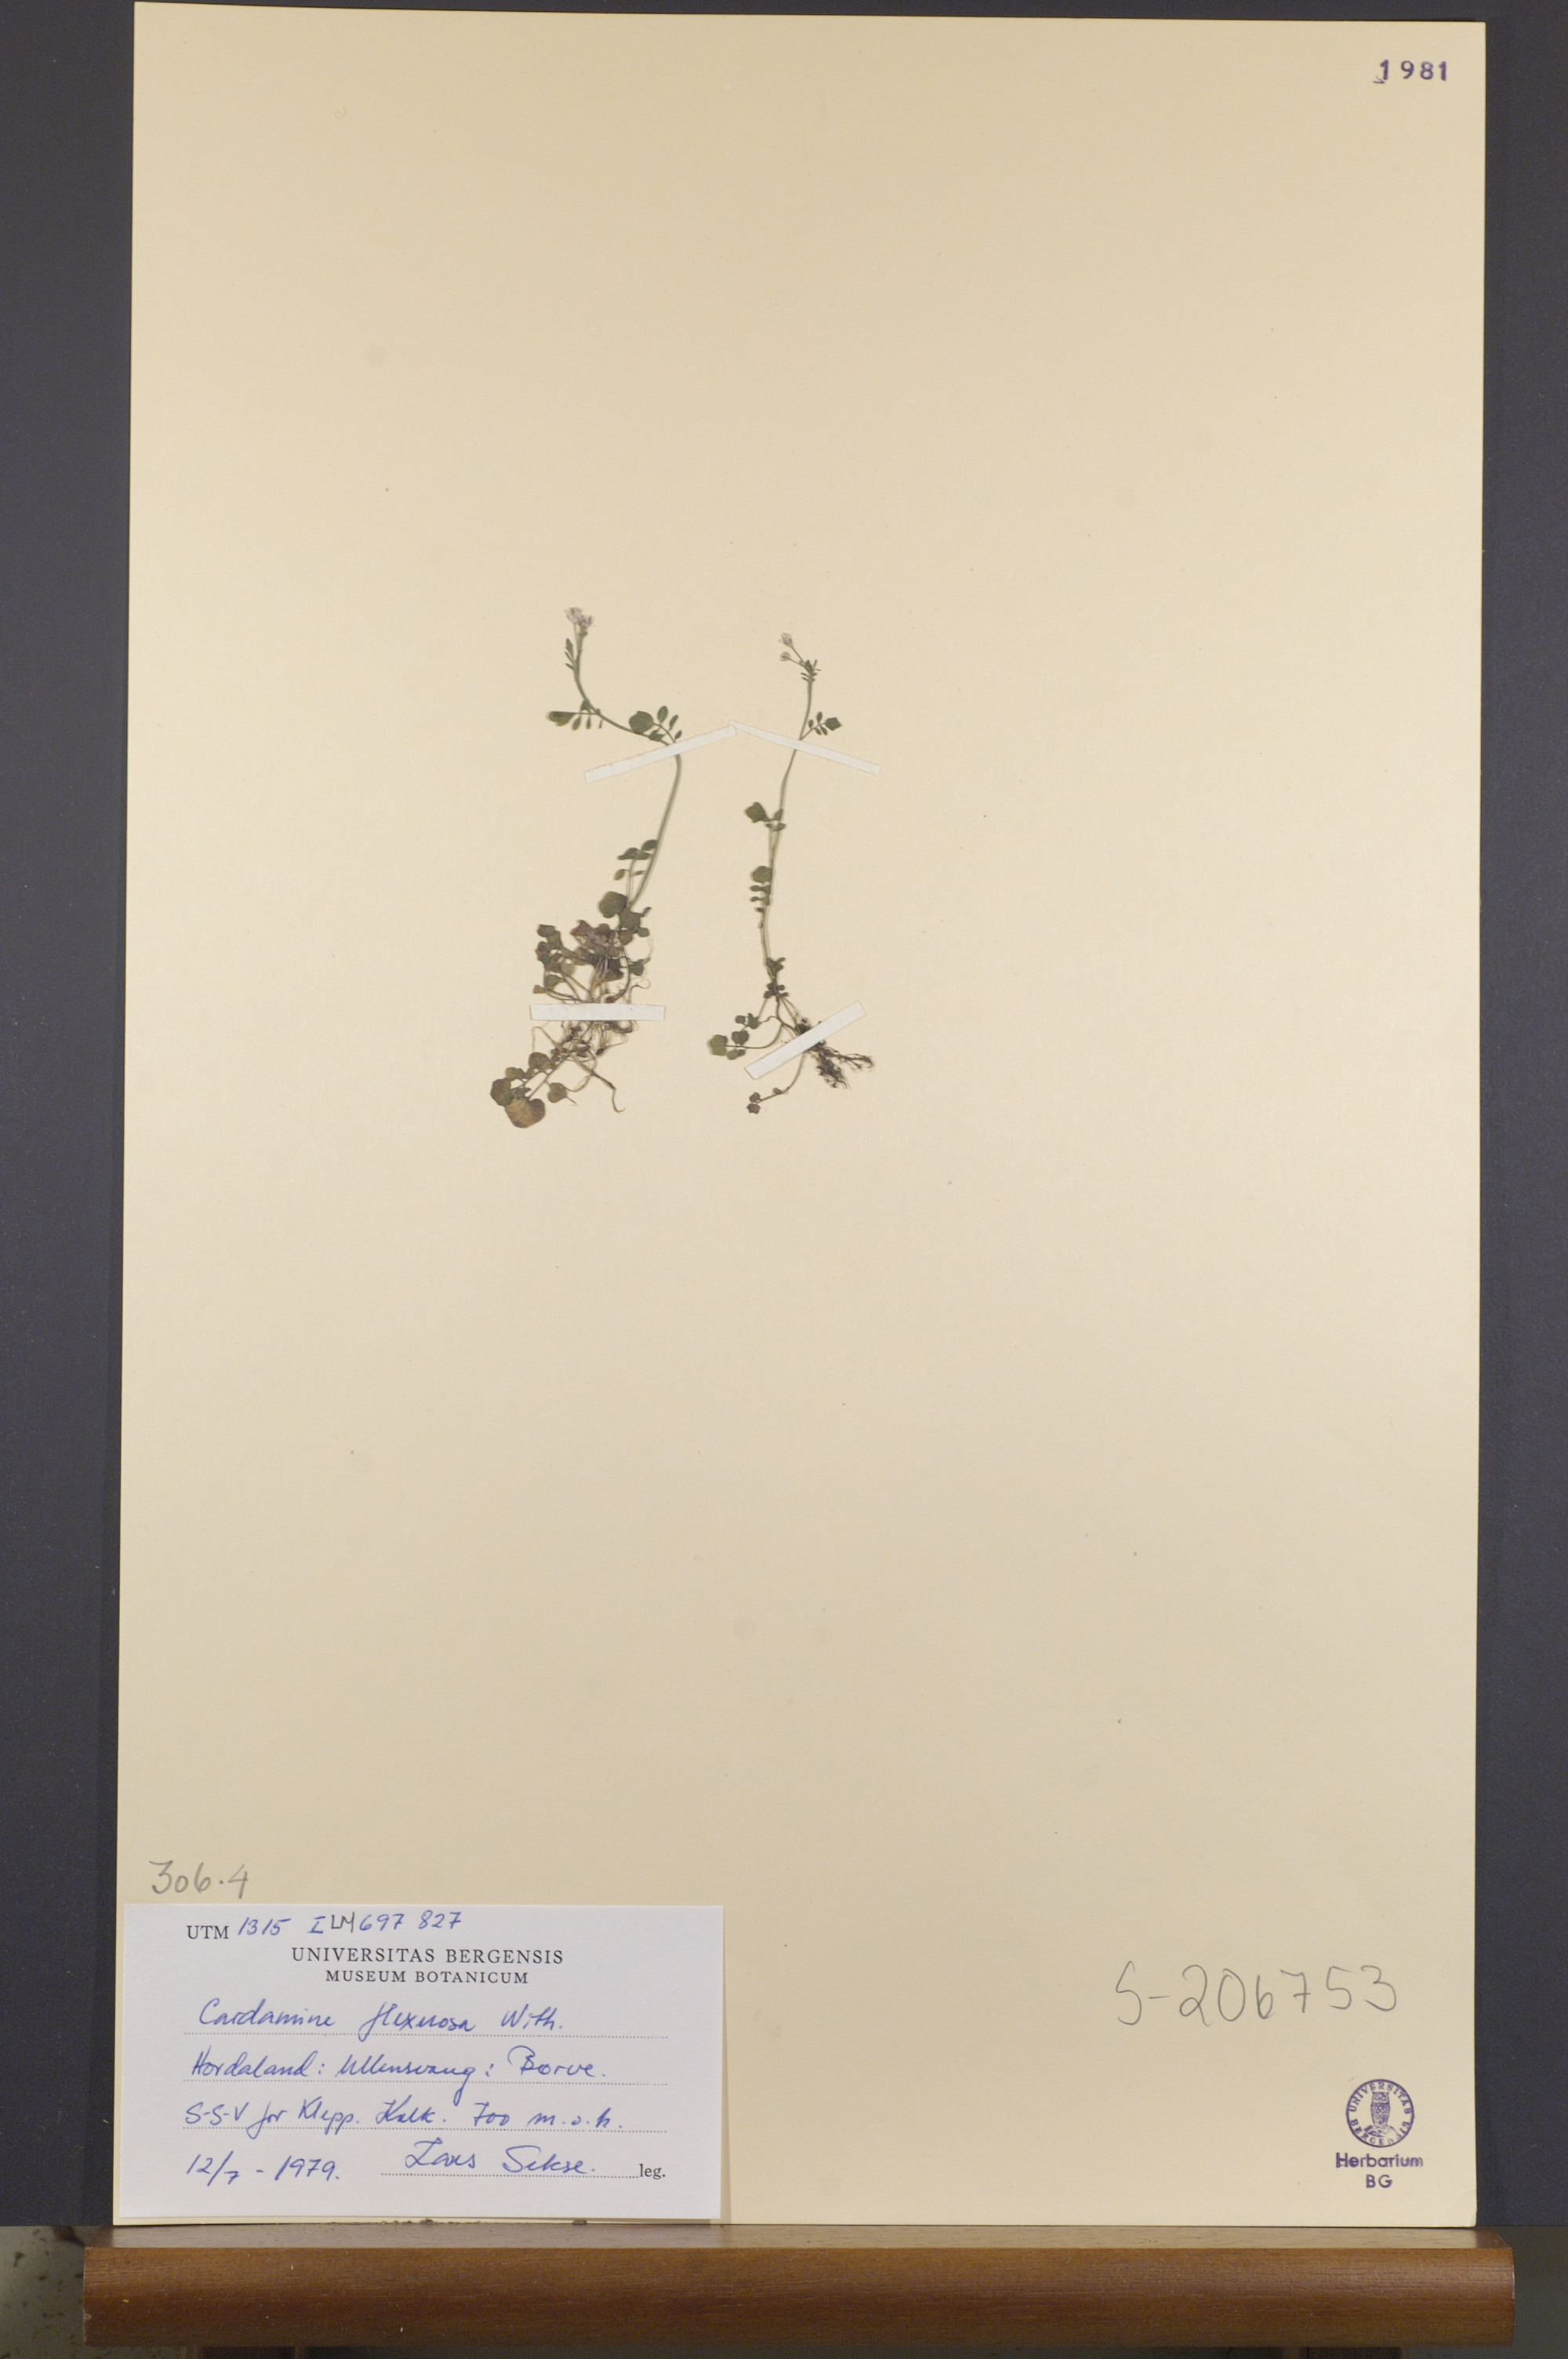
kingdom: Plantae
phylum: Tracheophyta
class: Magnoliopsida
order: Brassicales
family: Brassicaceae
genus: Cardamine
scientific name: Cardamine flexuosa
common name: Woodland bittercress
